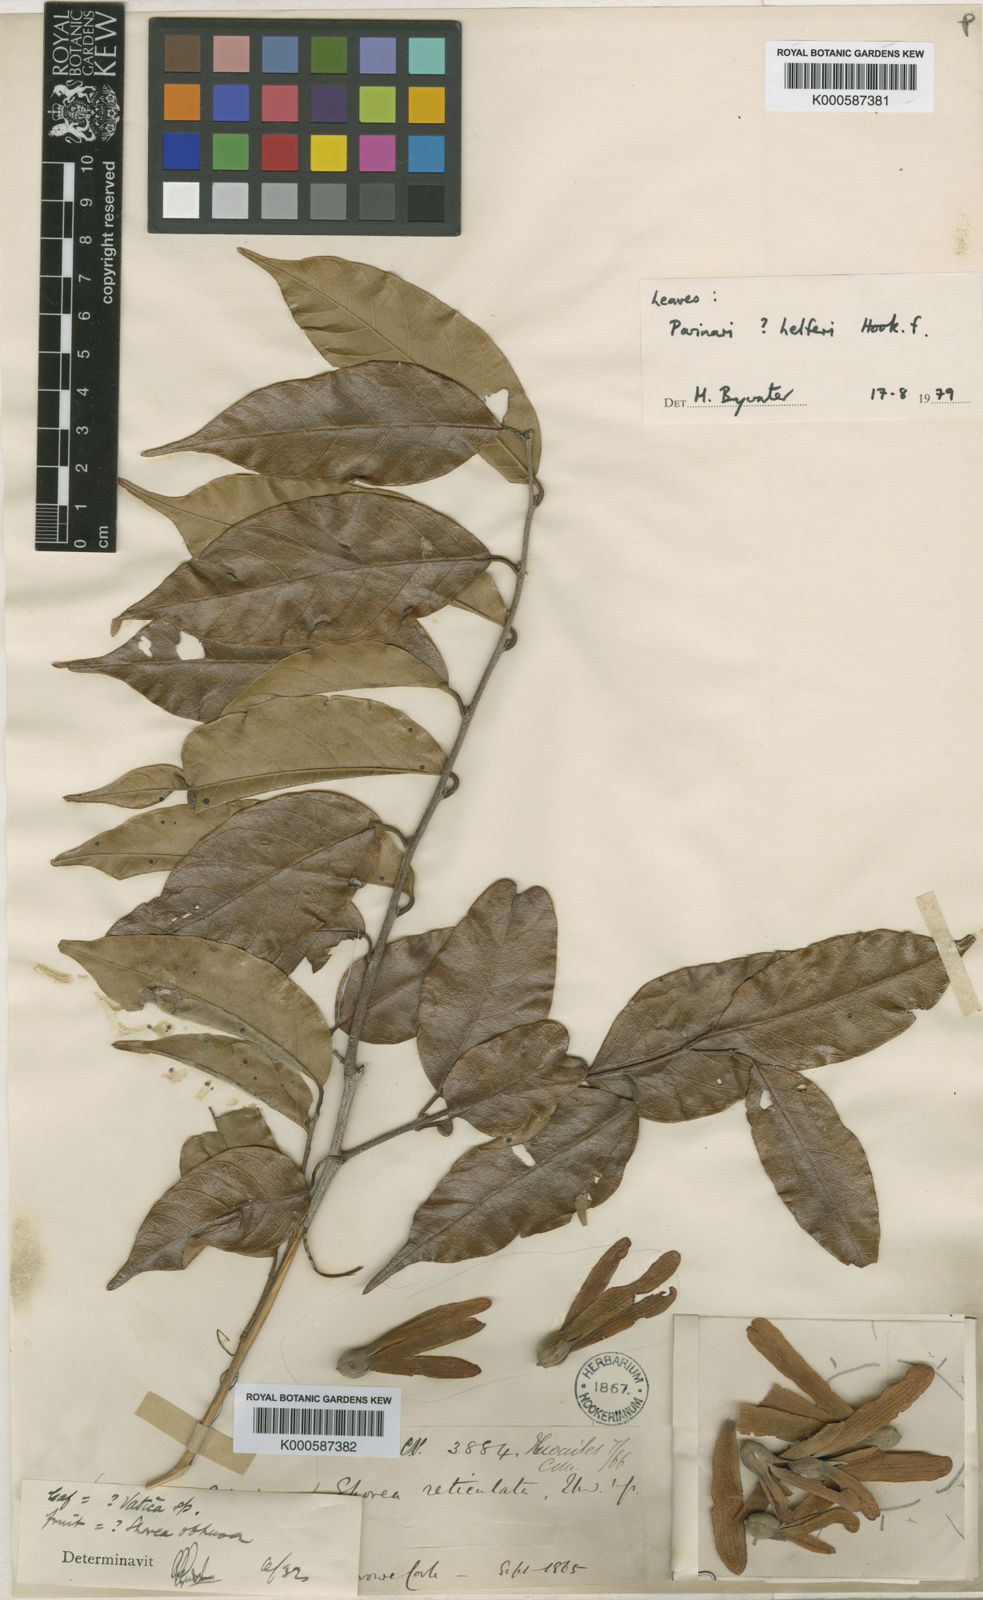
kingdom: Plantae
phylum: Tracheophyta
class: Magnoliopsida
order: Malvales
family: Dipterocarpaceae
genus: Shorea
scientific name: Shorea reticulata
